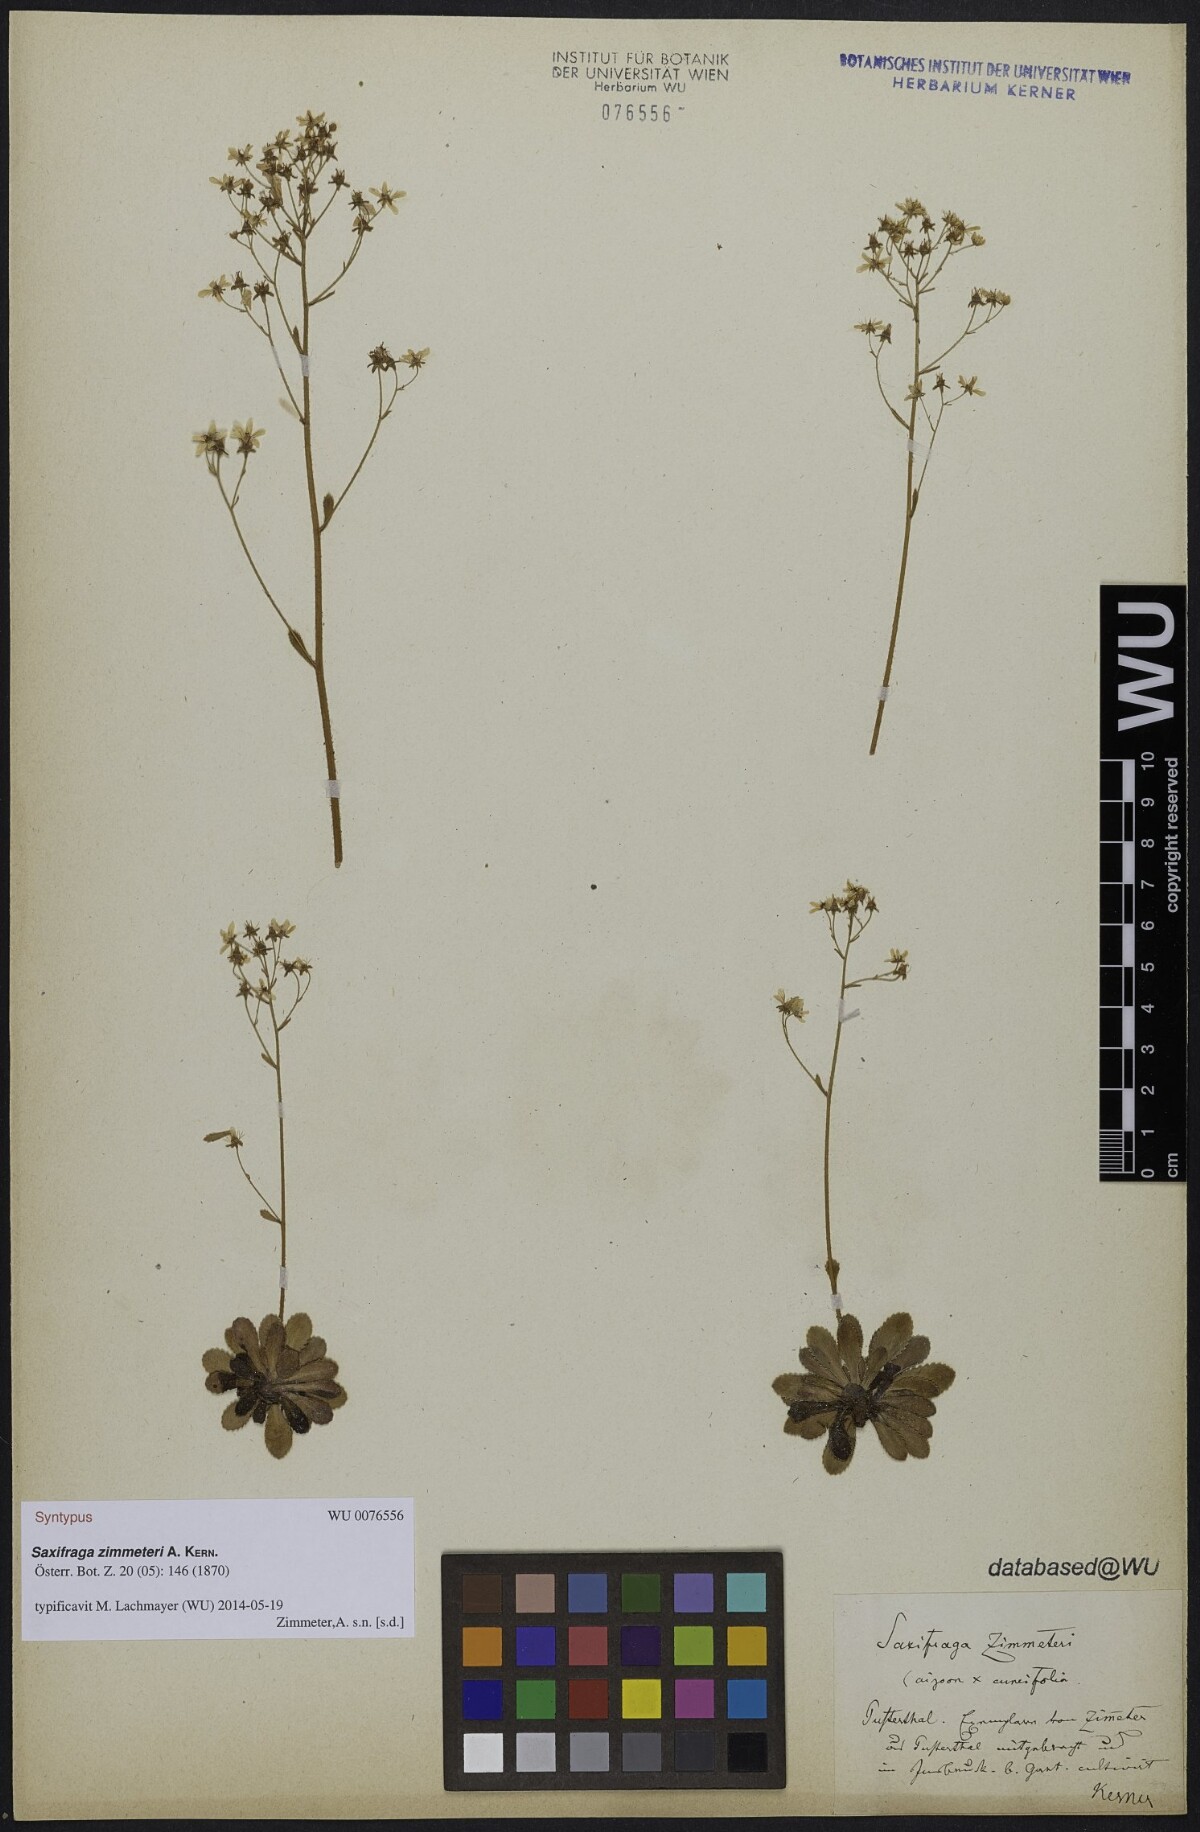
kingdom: Plantae
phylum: Tracheophyta
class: Magnoliopsida
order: Saxifragales
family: Saxifragaceae
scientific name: Saxifragaceae
